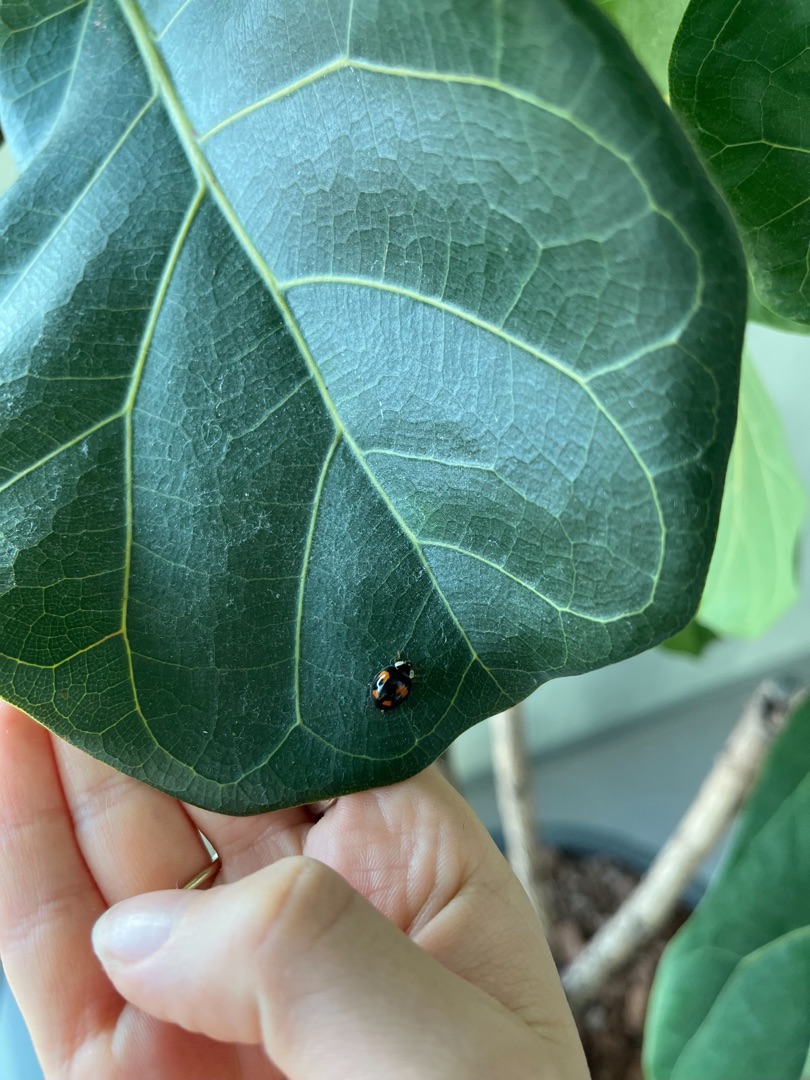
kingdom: Animalia
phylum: Arthropoda
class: Insecta
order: Coleoptera
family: Coccinellidae
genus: Harmonia
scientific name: Harmonia axyridis
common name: Harlekinmariehøne
